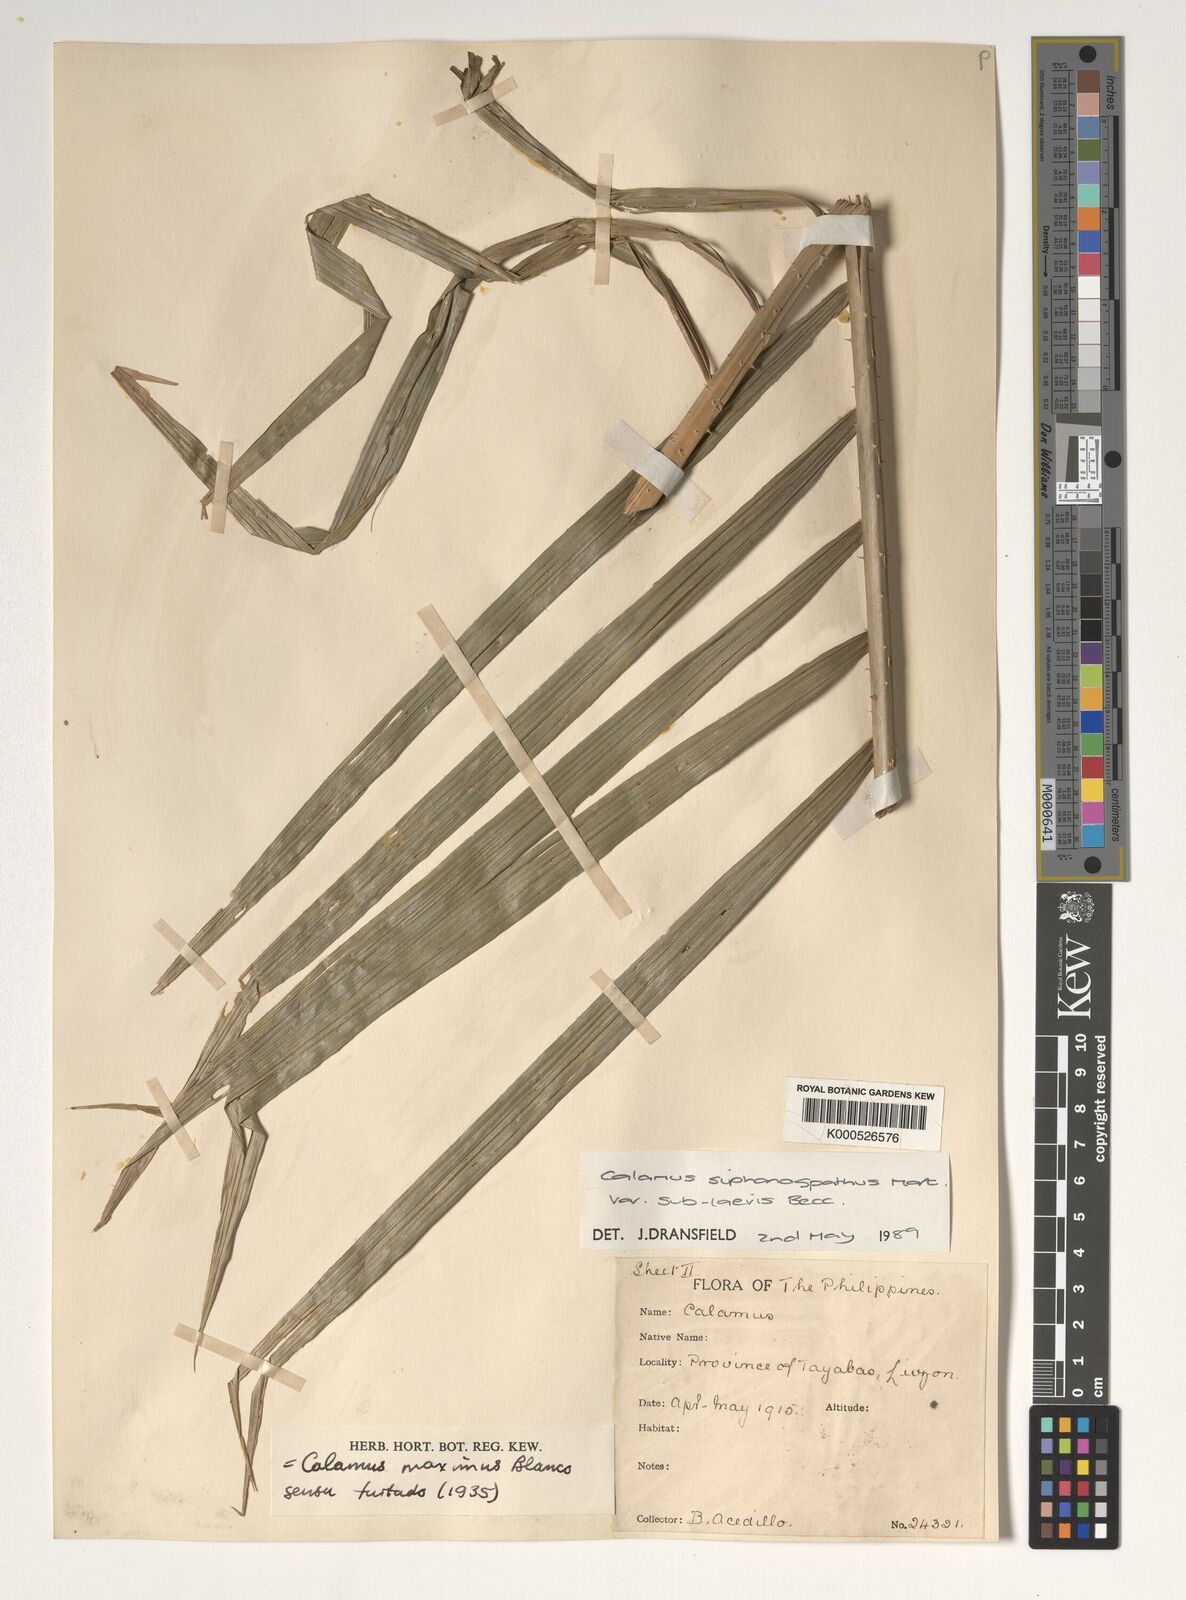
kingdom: Plantae
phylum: Tracheophyta
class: Liliopsida
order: Arecales
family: Arecaceae
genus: Calamus
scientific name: Calamus siphonospathus
